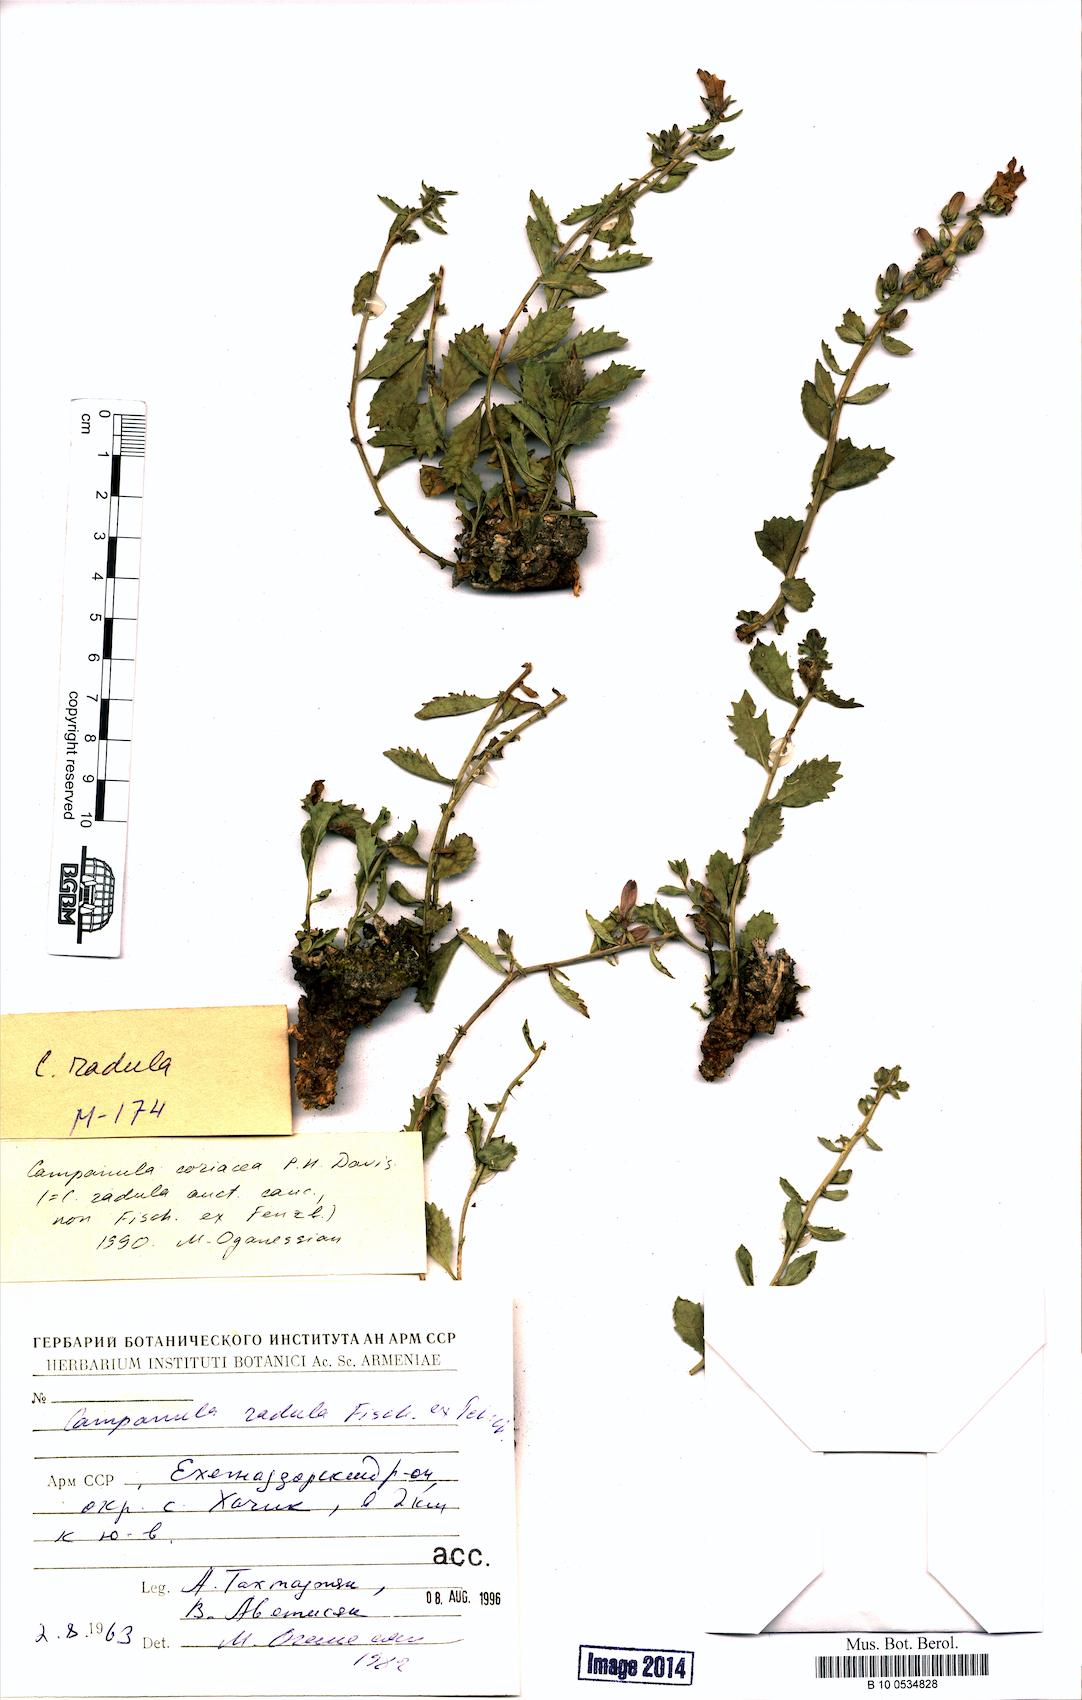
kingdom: Plantae
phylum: Tracheophyta
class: Magnoliopsida
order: Asterales
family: Campanulaceae
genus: Campanula
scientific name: Campanula coriacea
